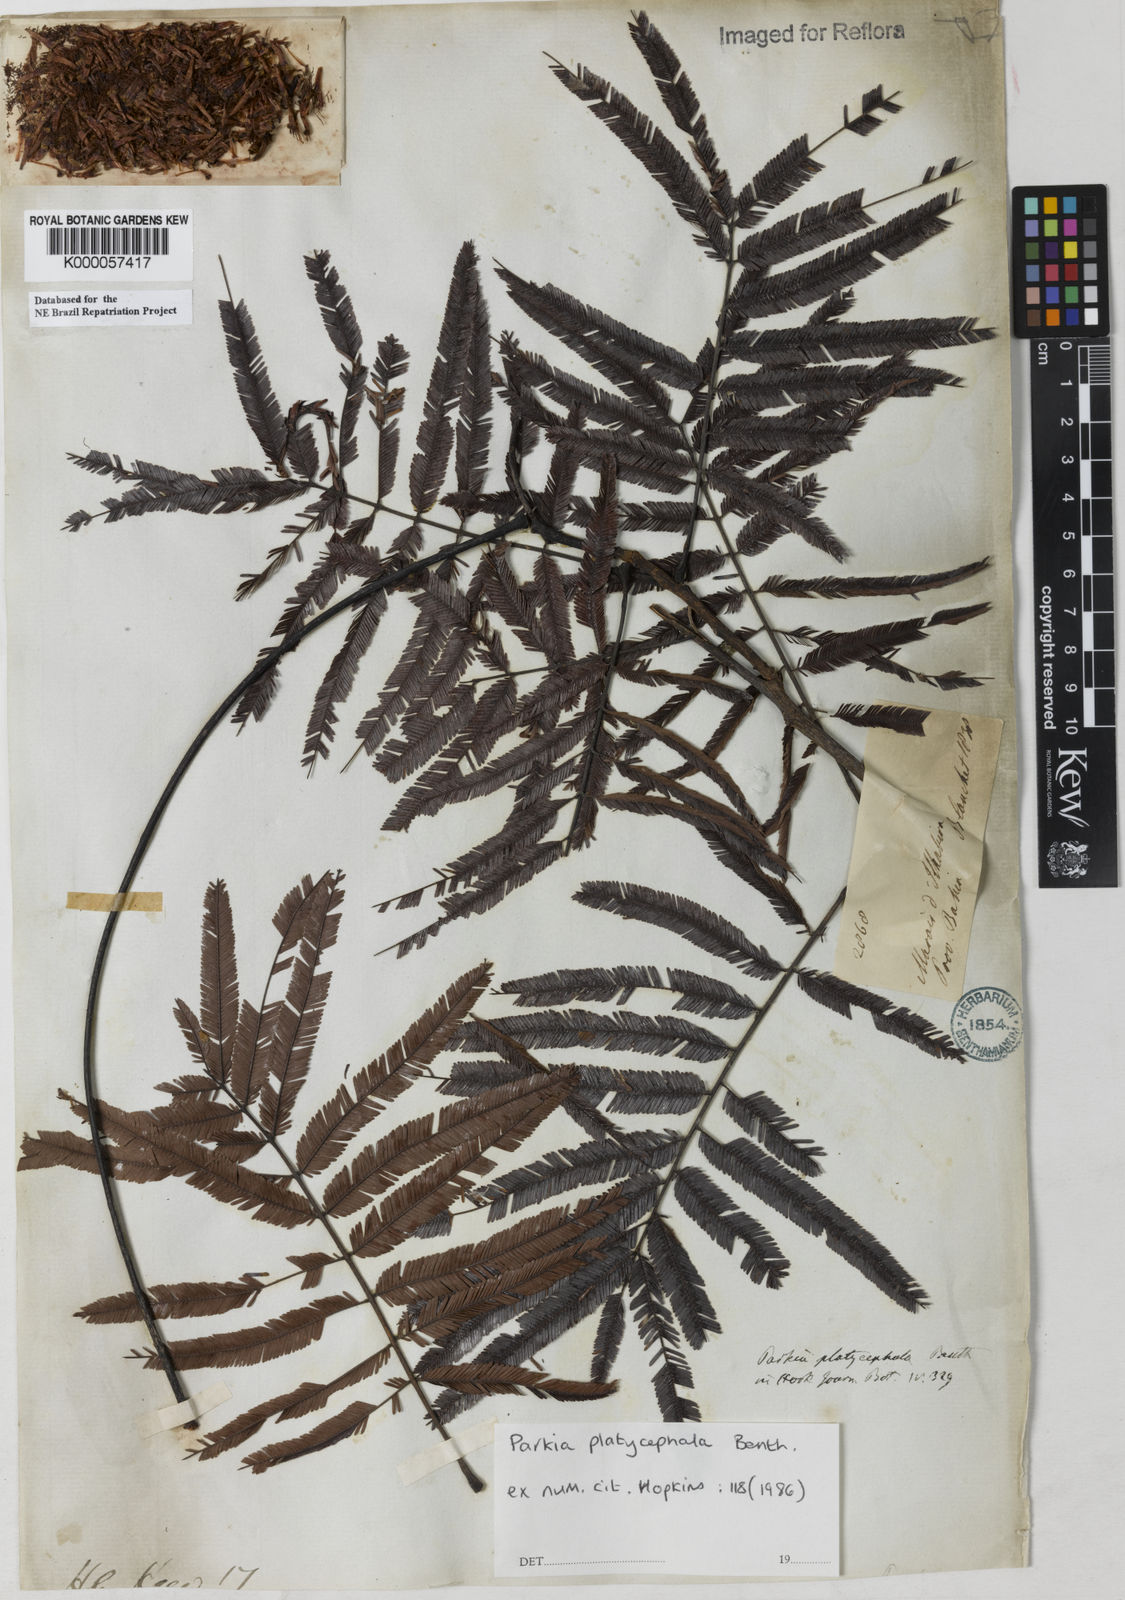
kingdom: Plantae
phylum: Tracheophyta
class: Magnoliopsida
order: Fabales
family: Fabaceae
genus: Parkia
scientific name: Parkia platycephala
